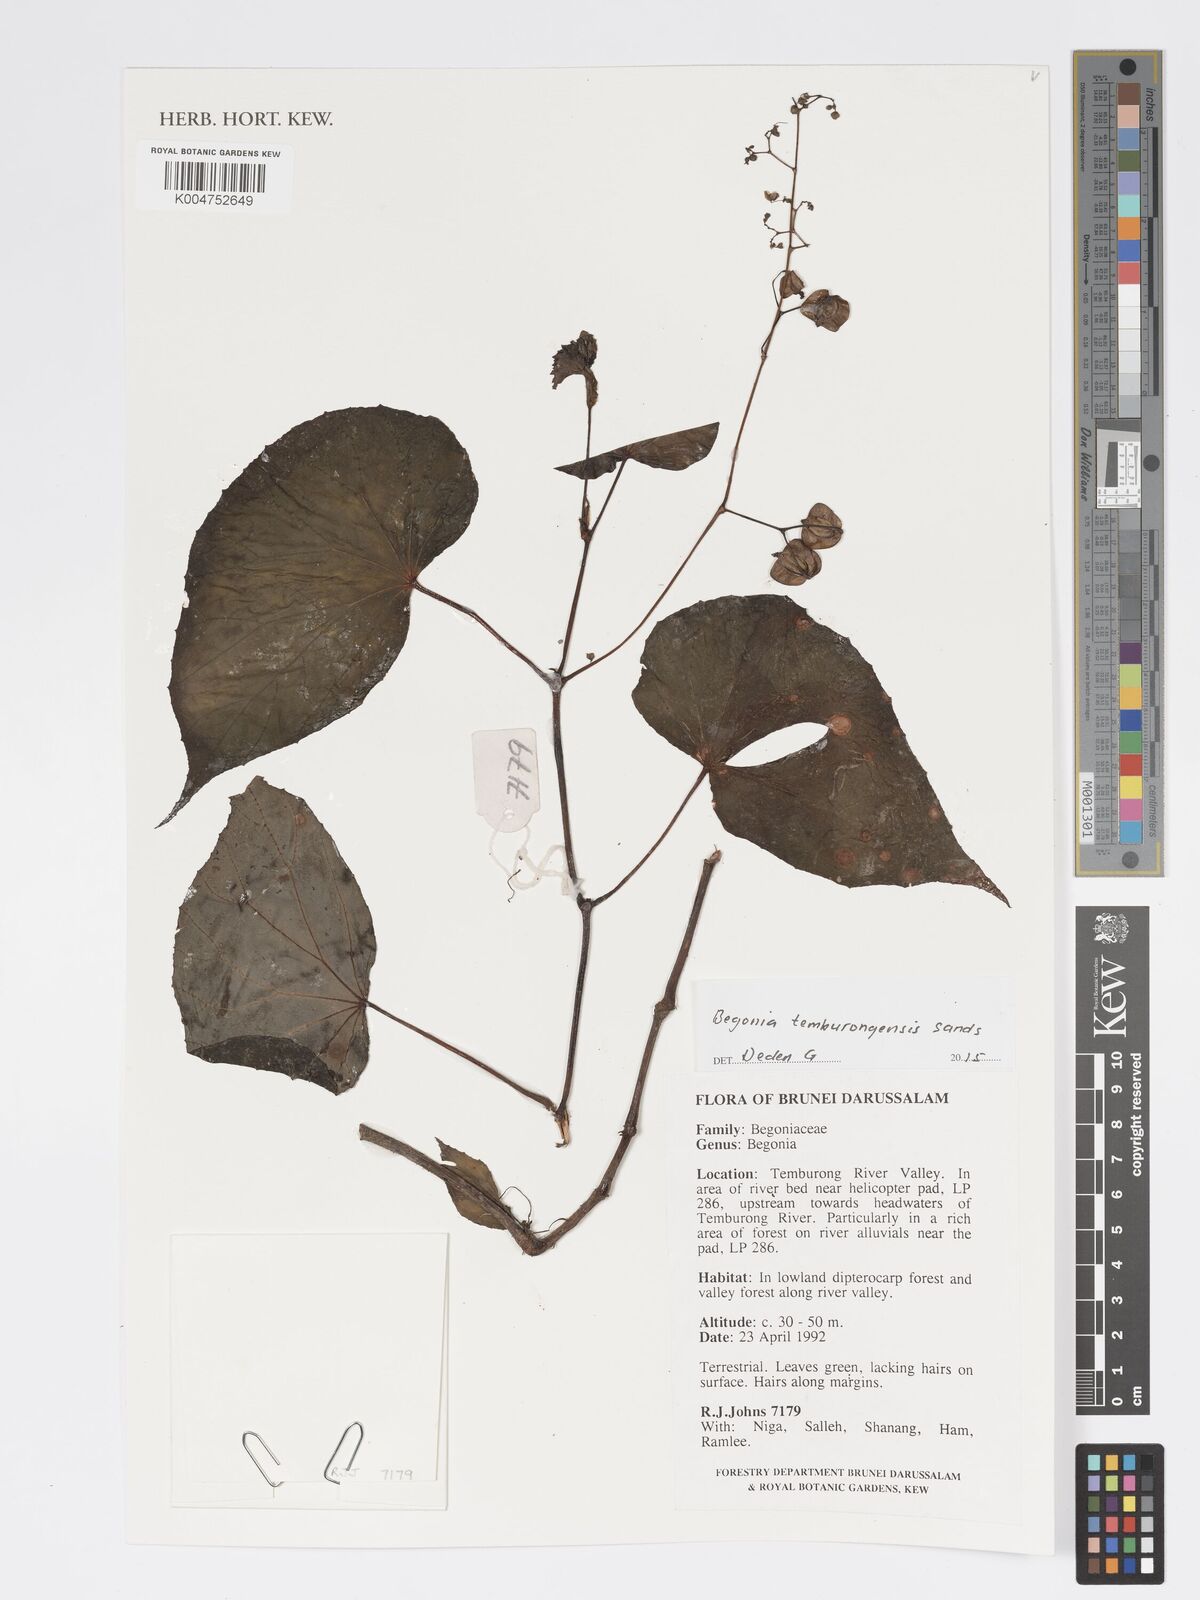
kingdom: Plantae
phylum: Tracheophyta
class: Magnoliopsida
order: Cucurbitales
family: Begoniaceae
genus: Begonia
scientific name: Begonia temburongensis
